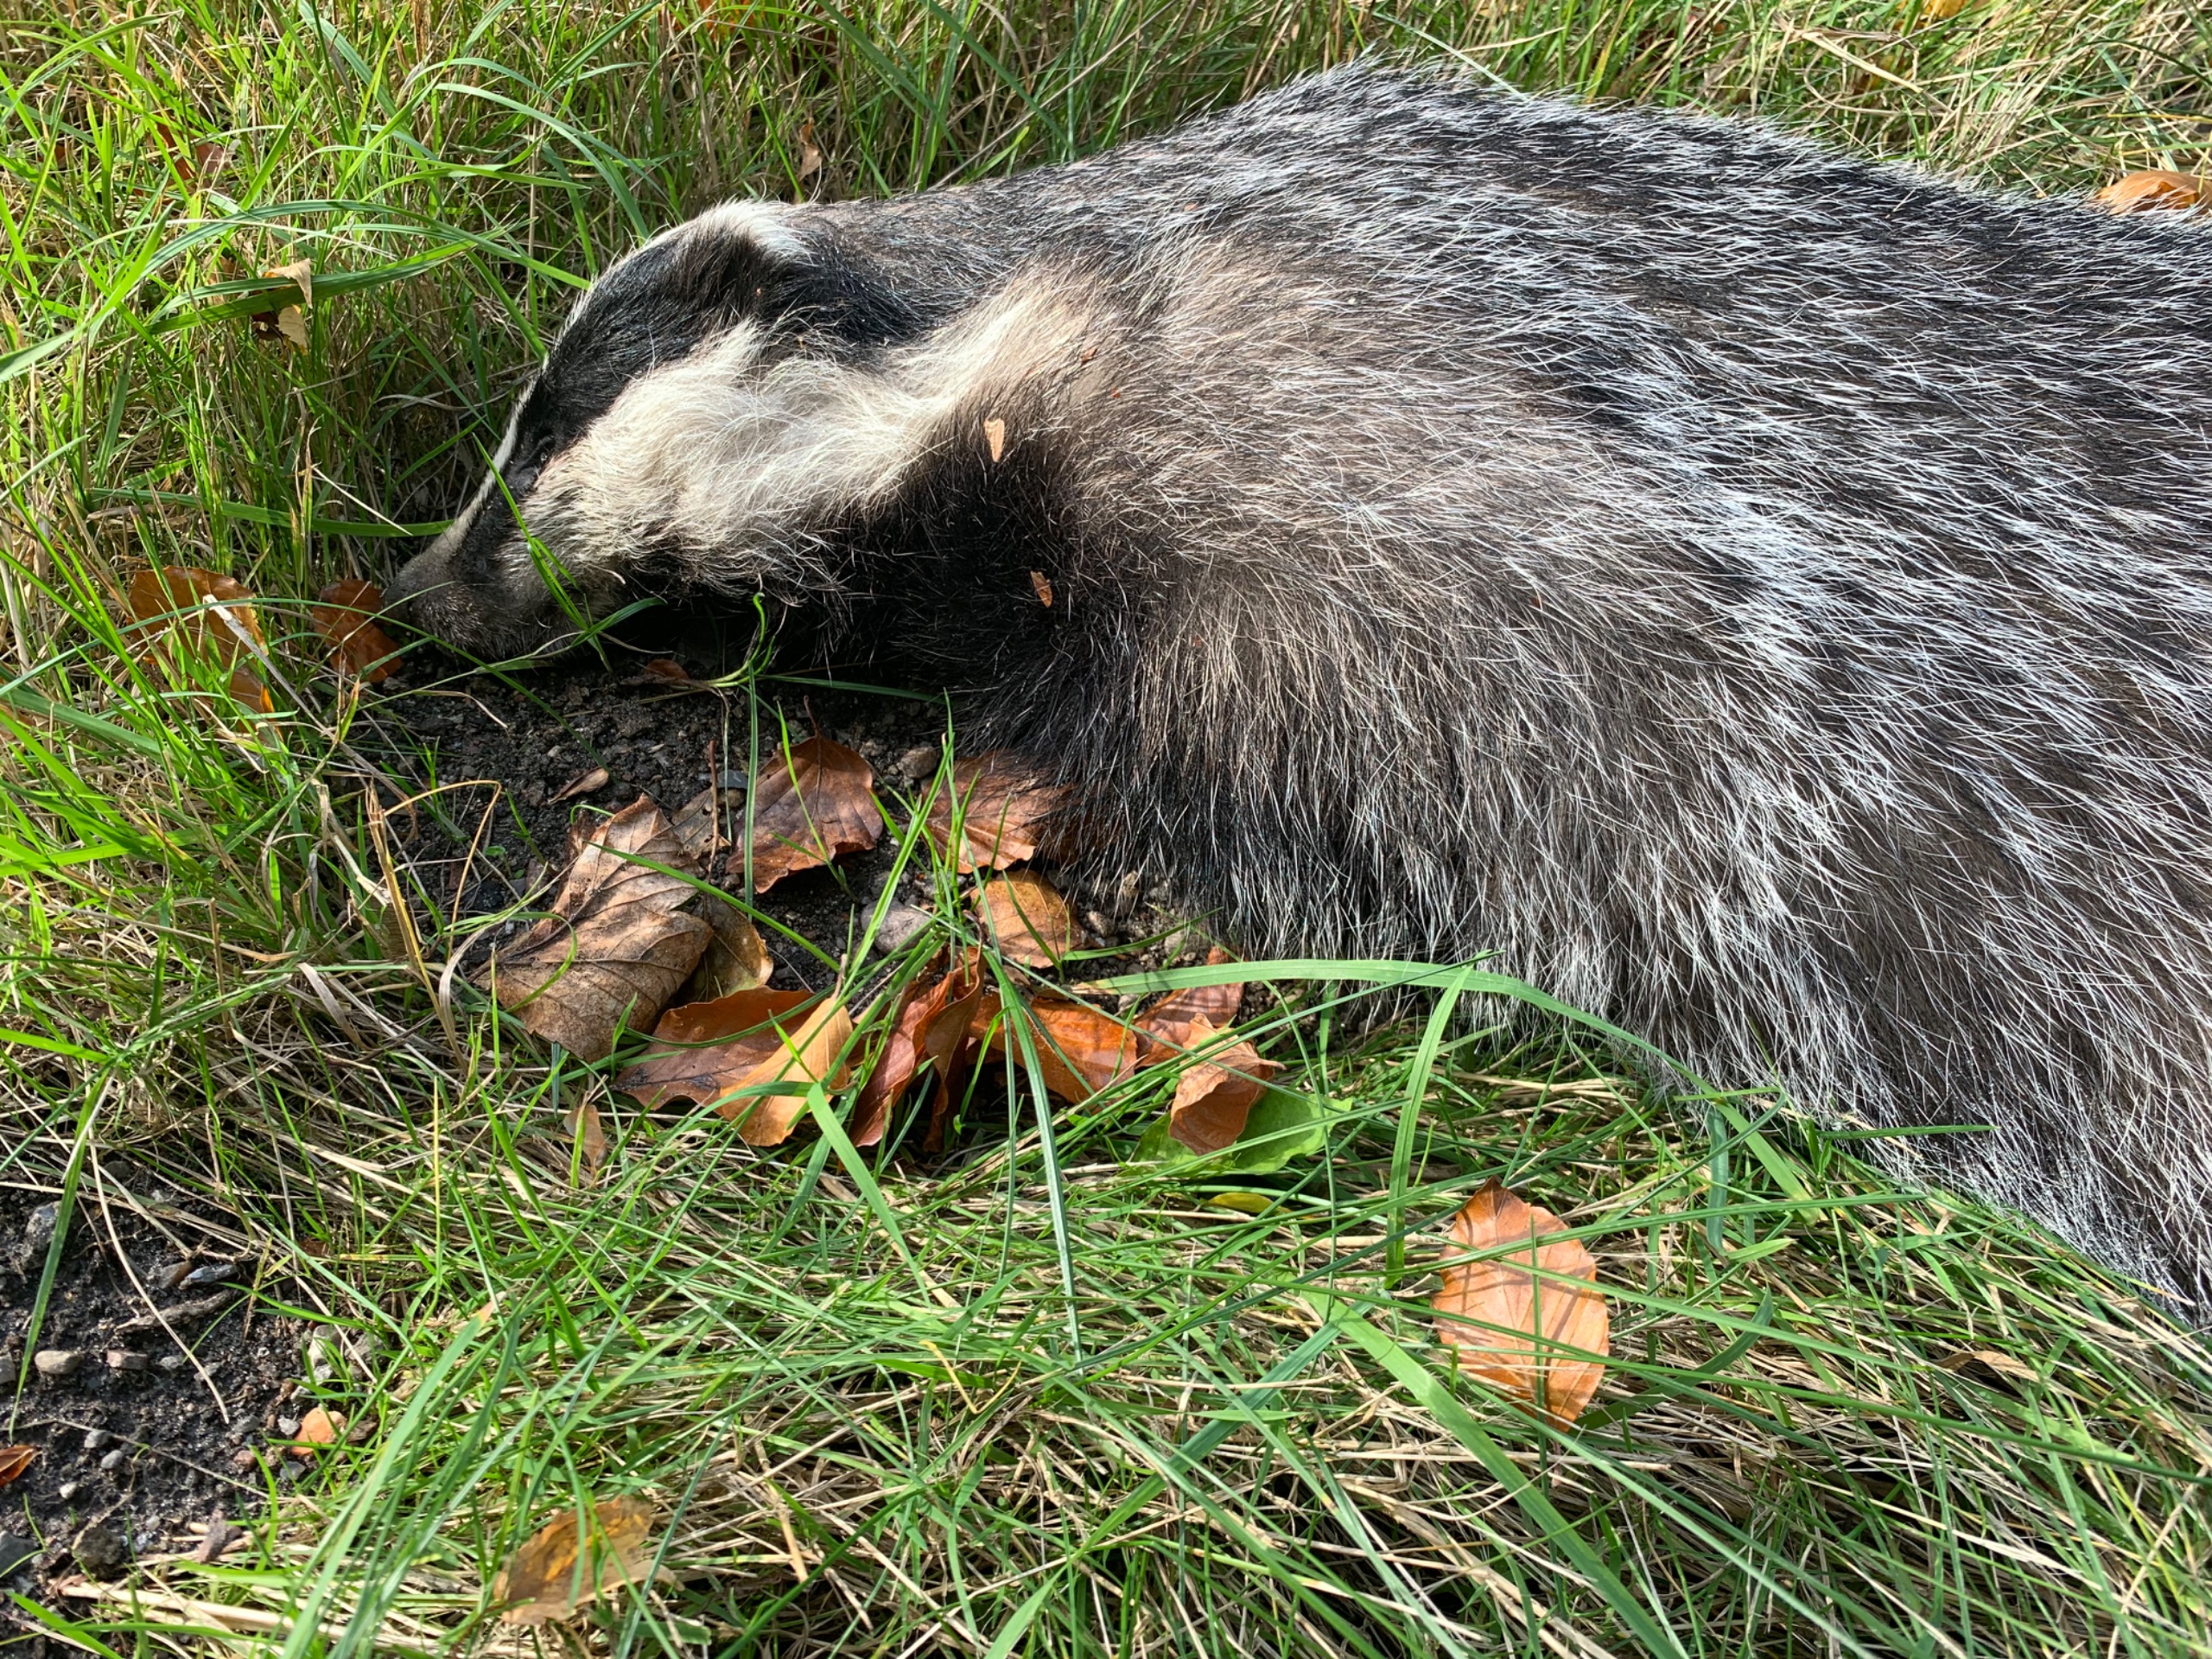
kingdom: Animalia
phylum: Chordata
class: Mammalia
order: Carnivora
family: Mustelidae
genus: Meles
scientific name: Meles meles
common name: Grævling
